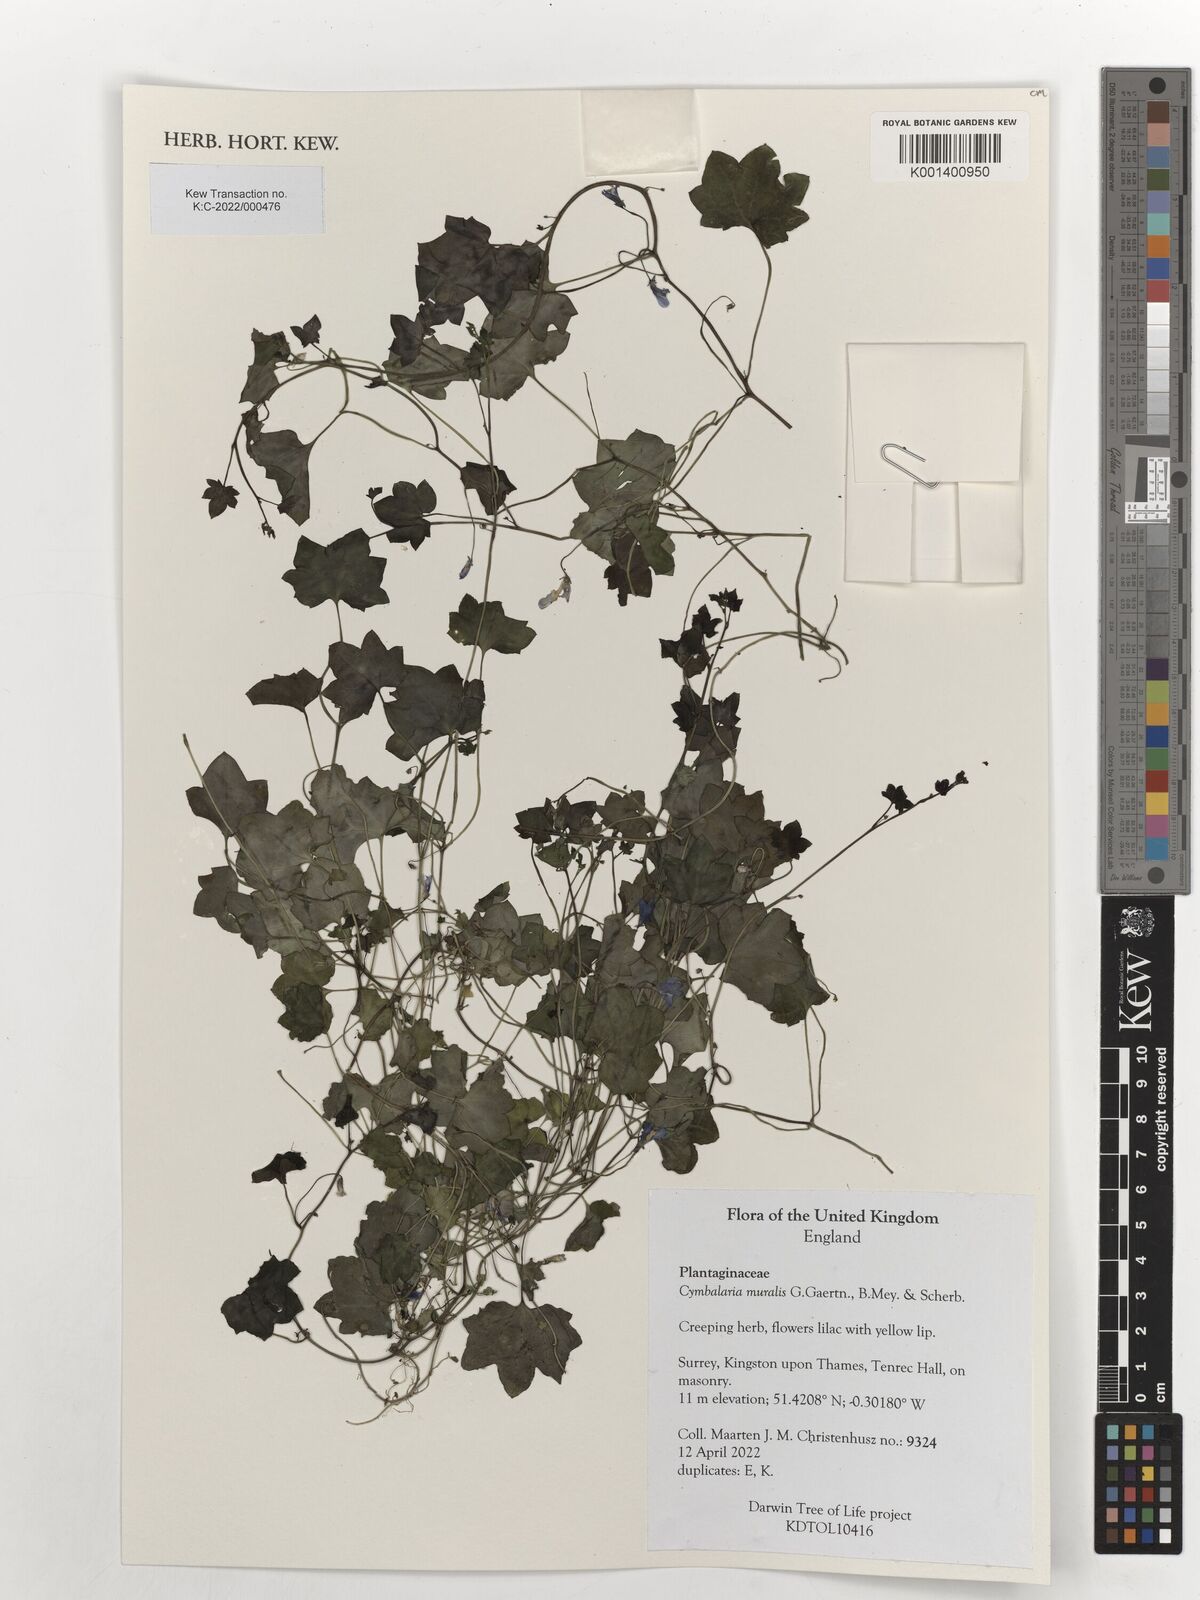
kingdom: Plantae
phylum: Tracheophyta
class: Magnoliopsida
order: Lamiales
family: Plantaginaceae
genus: Cymbalaria
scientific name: Cymbalaria muralis
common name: Ivy-leaved toadflax
